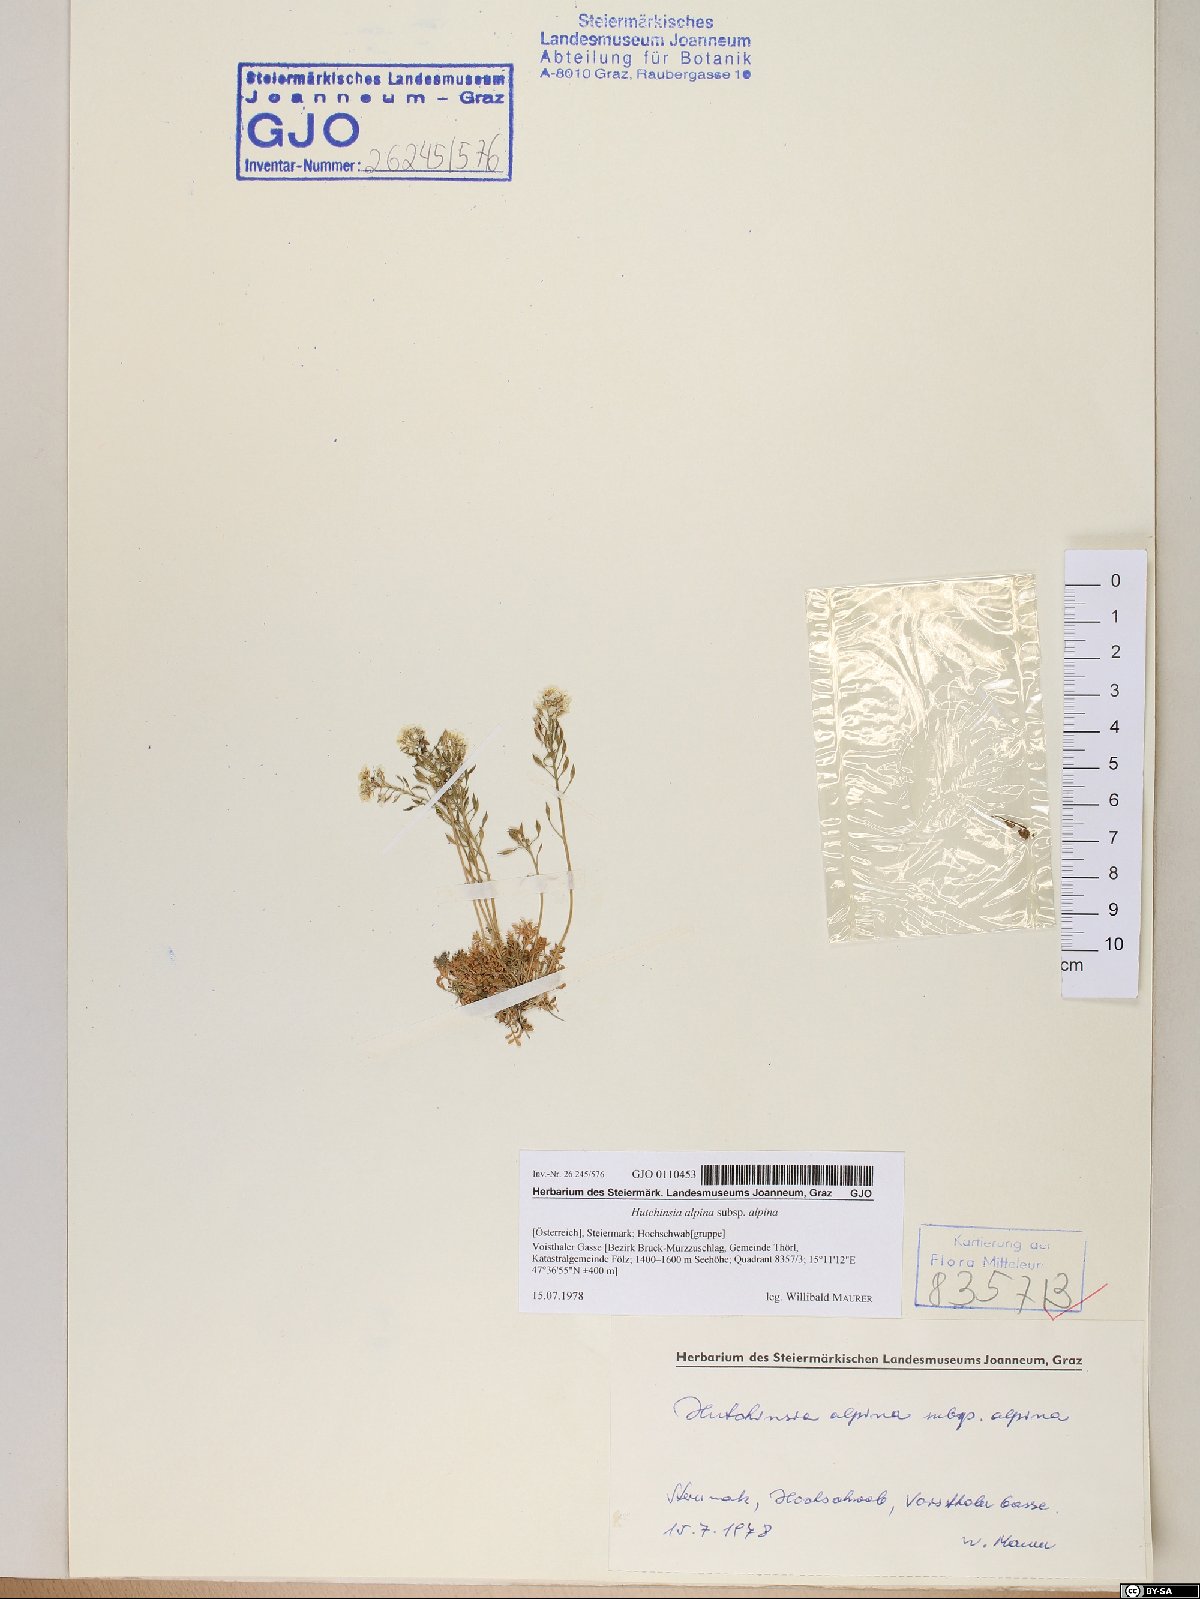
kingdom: Plantae
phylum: Tracheophyta
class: Magnoliopsida
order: Brassicales
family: Brassicaceae
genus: Hornungia
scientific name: Hornungia alpina
